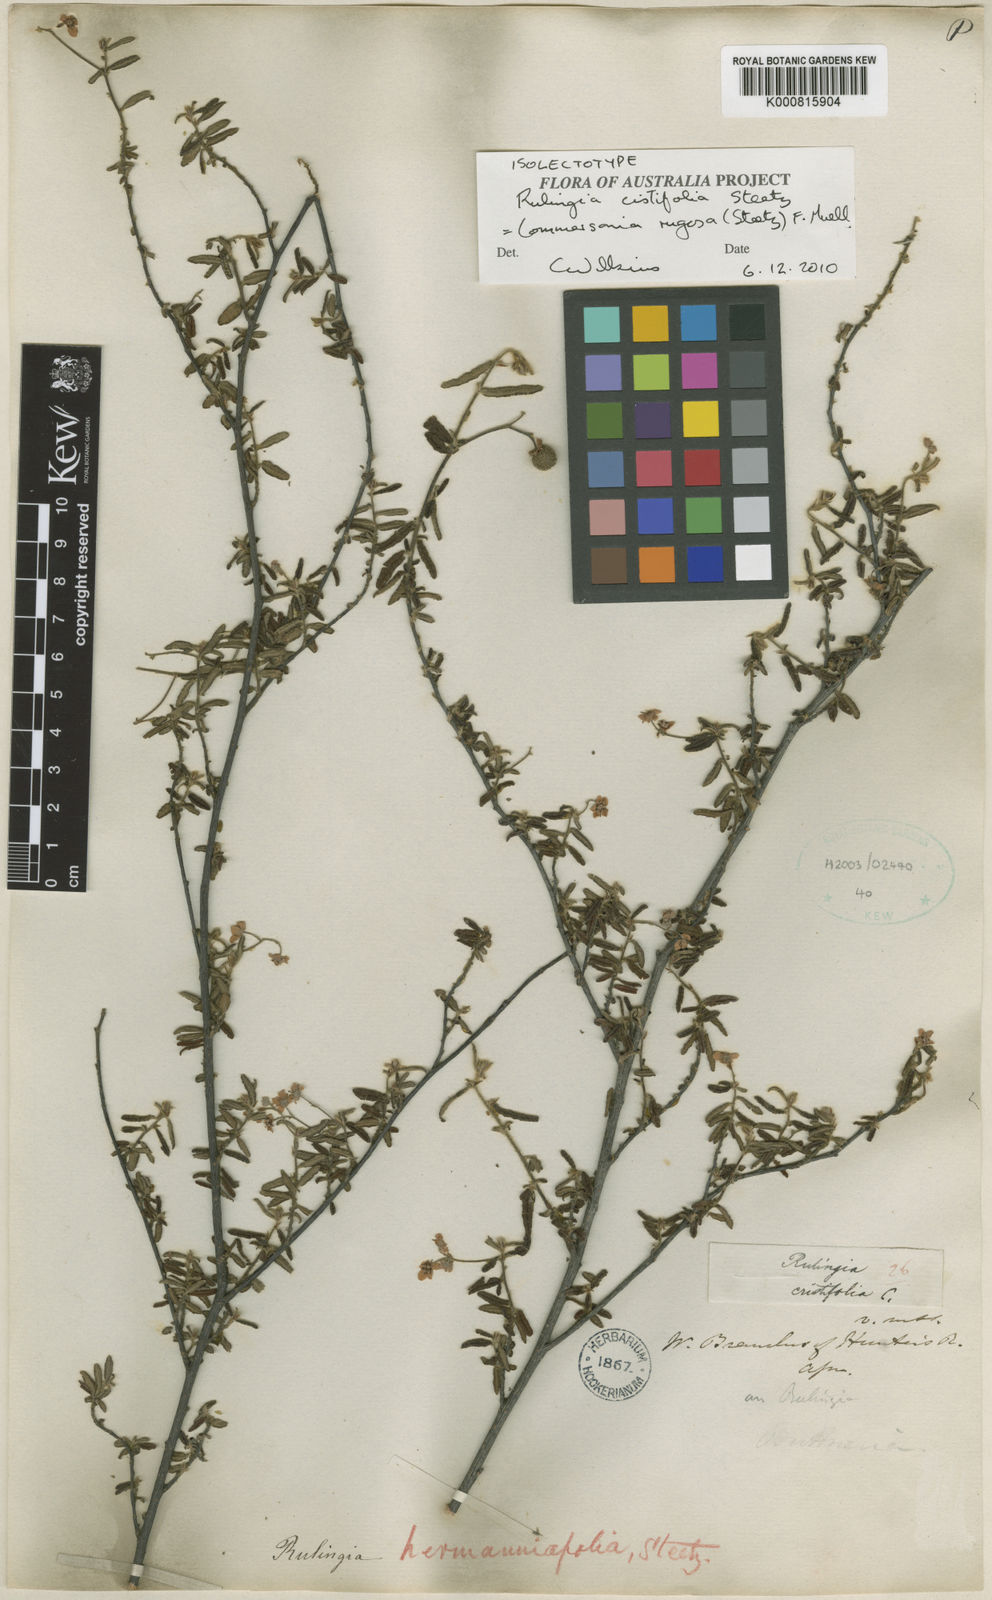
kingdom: Plantae
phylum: Tracheophyta
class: Magnoliopsida
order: Malvales
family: Malvaceae
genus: Commersonia
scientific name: Commersonia rugosa
